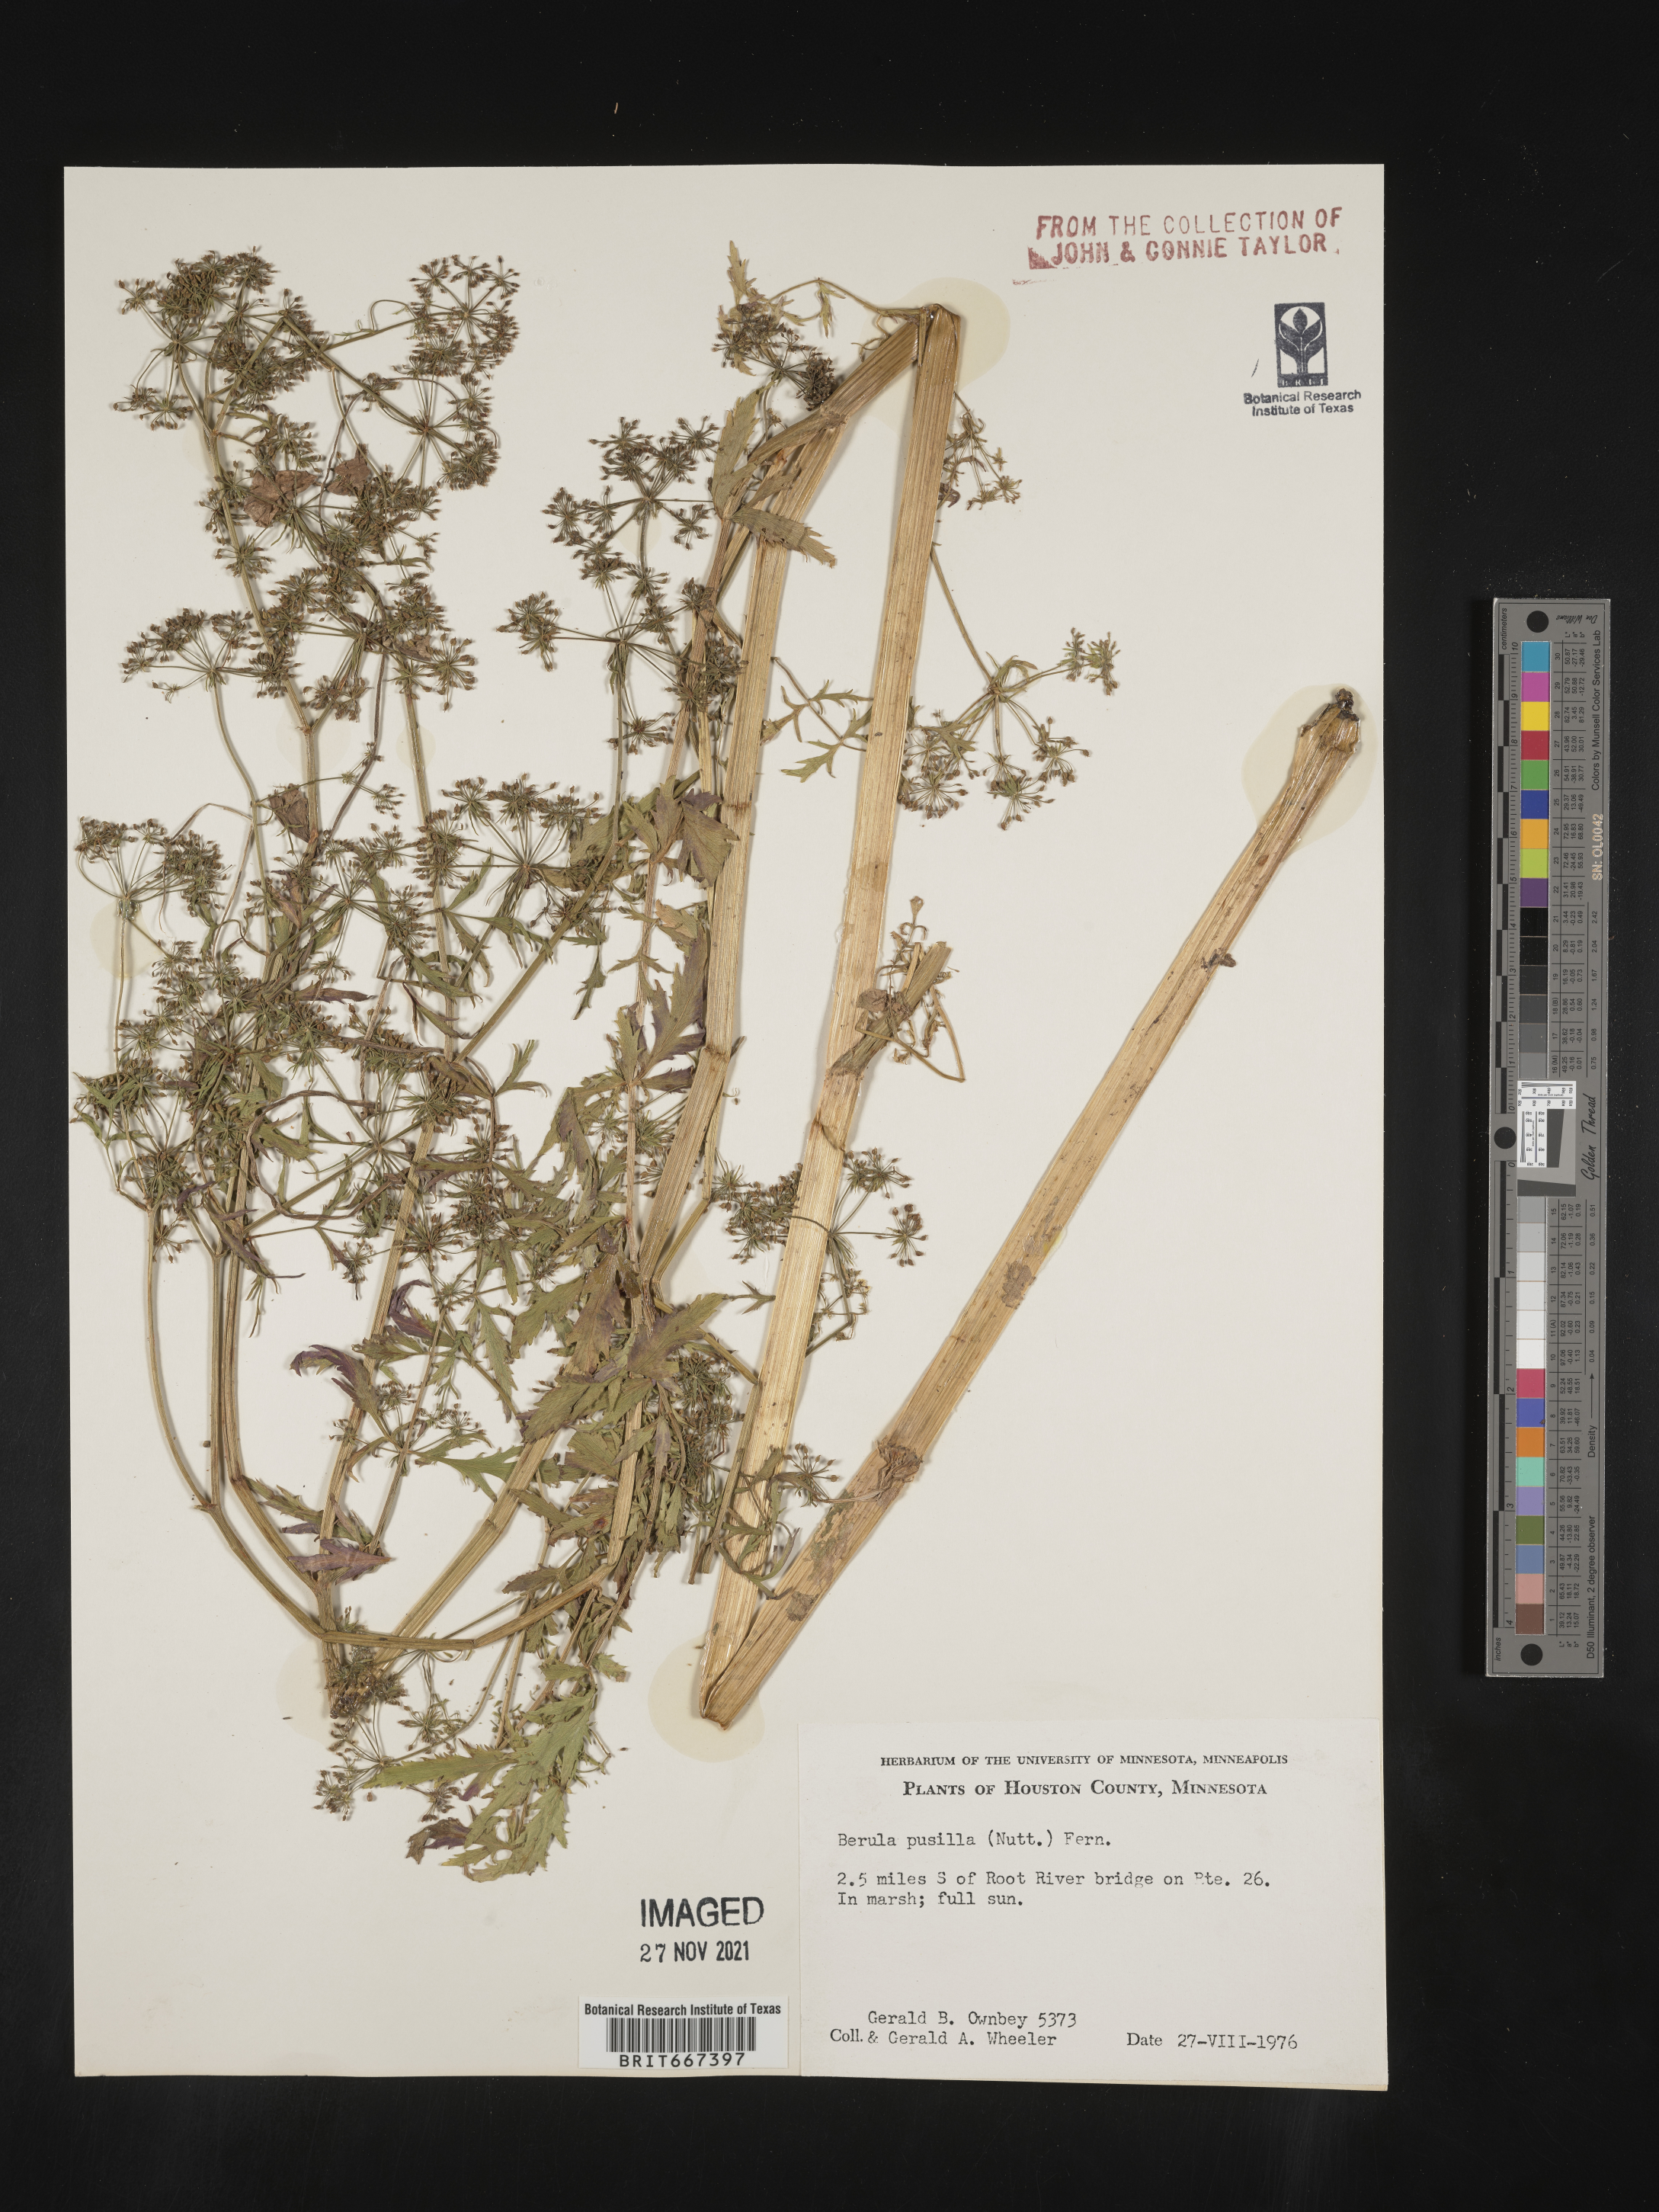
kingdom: Plantae
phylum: Tracheophyta
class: Magnoliopsida
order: Apiales
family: Apiaceae
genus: Berula
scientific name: Berula
